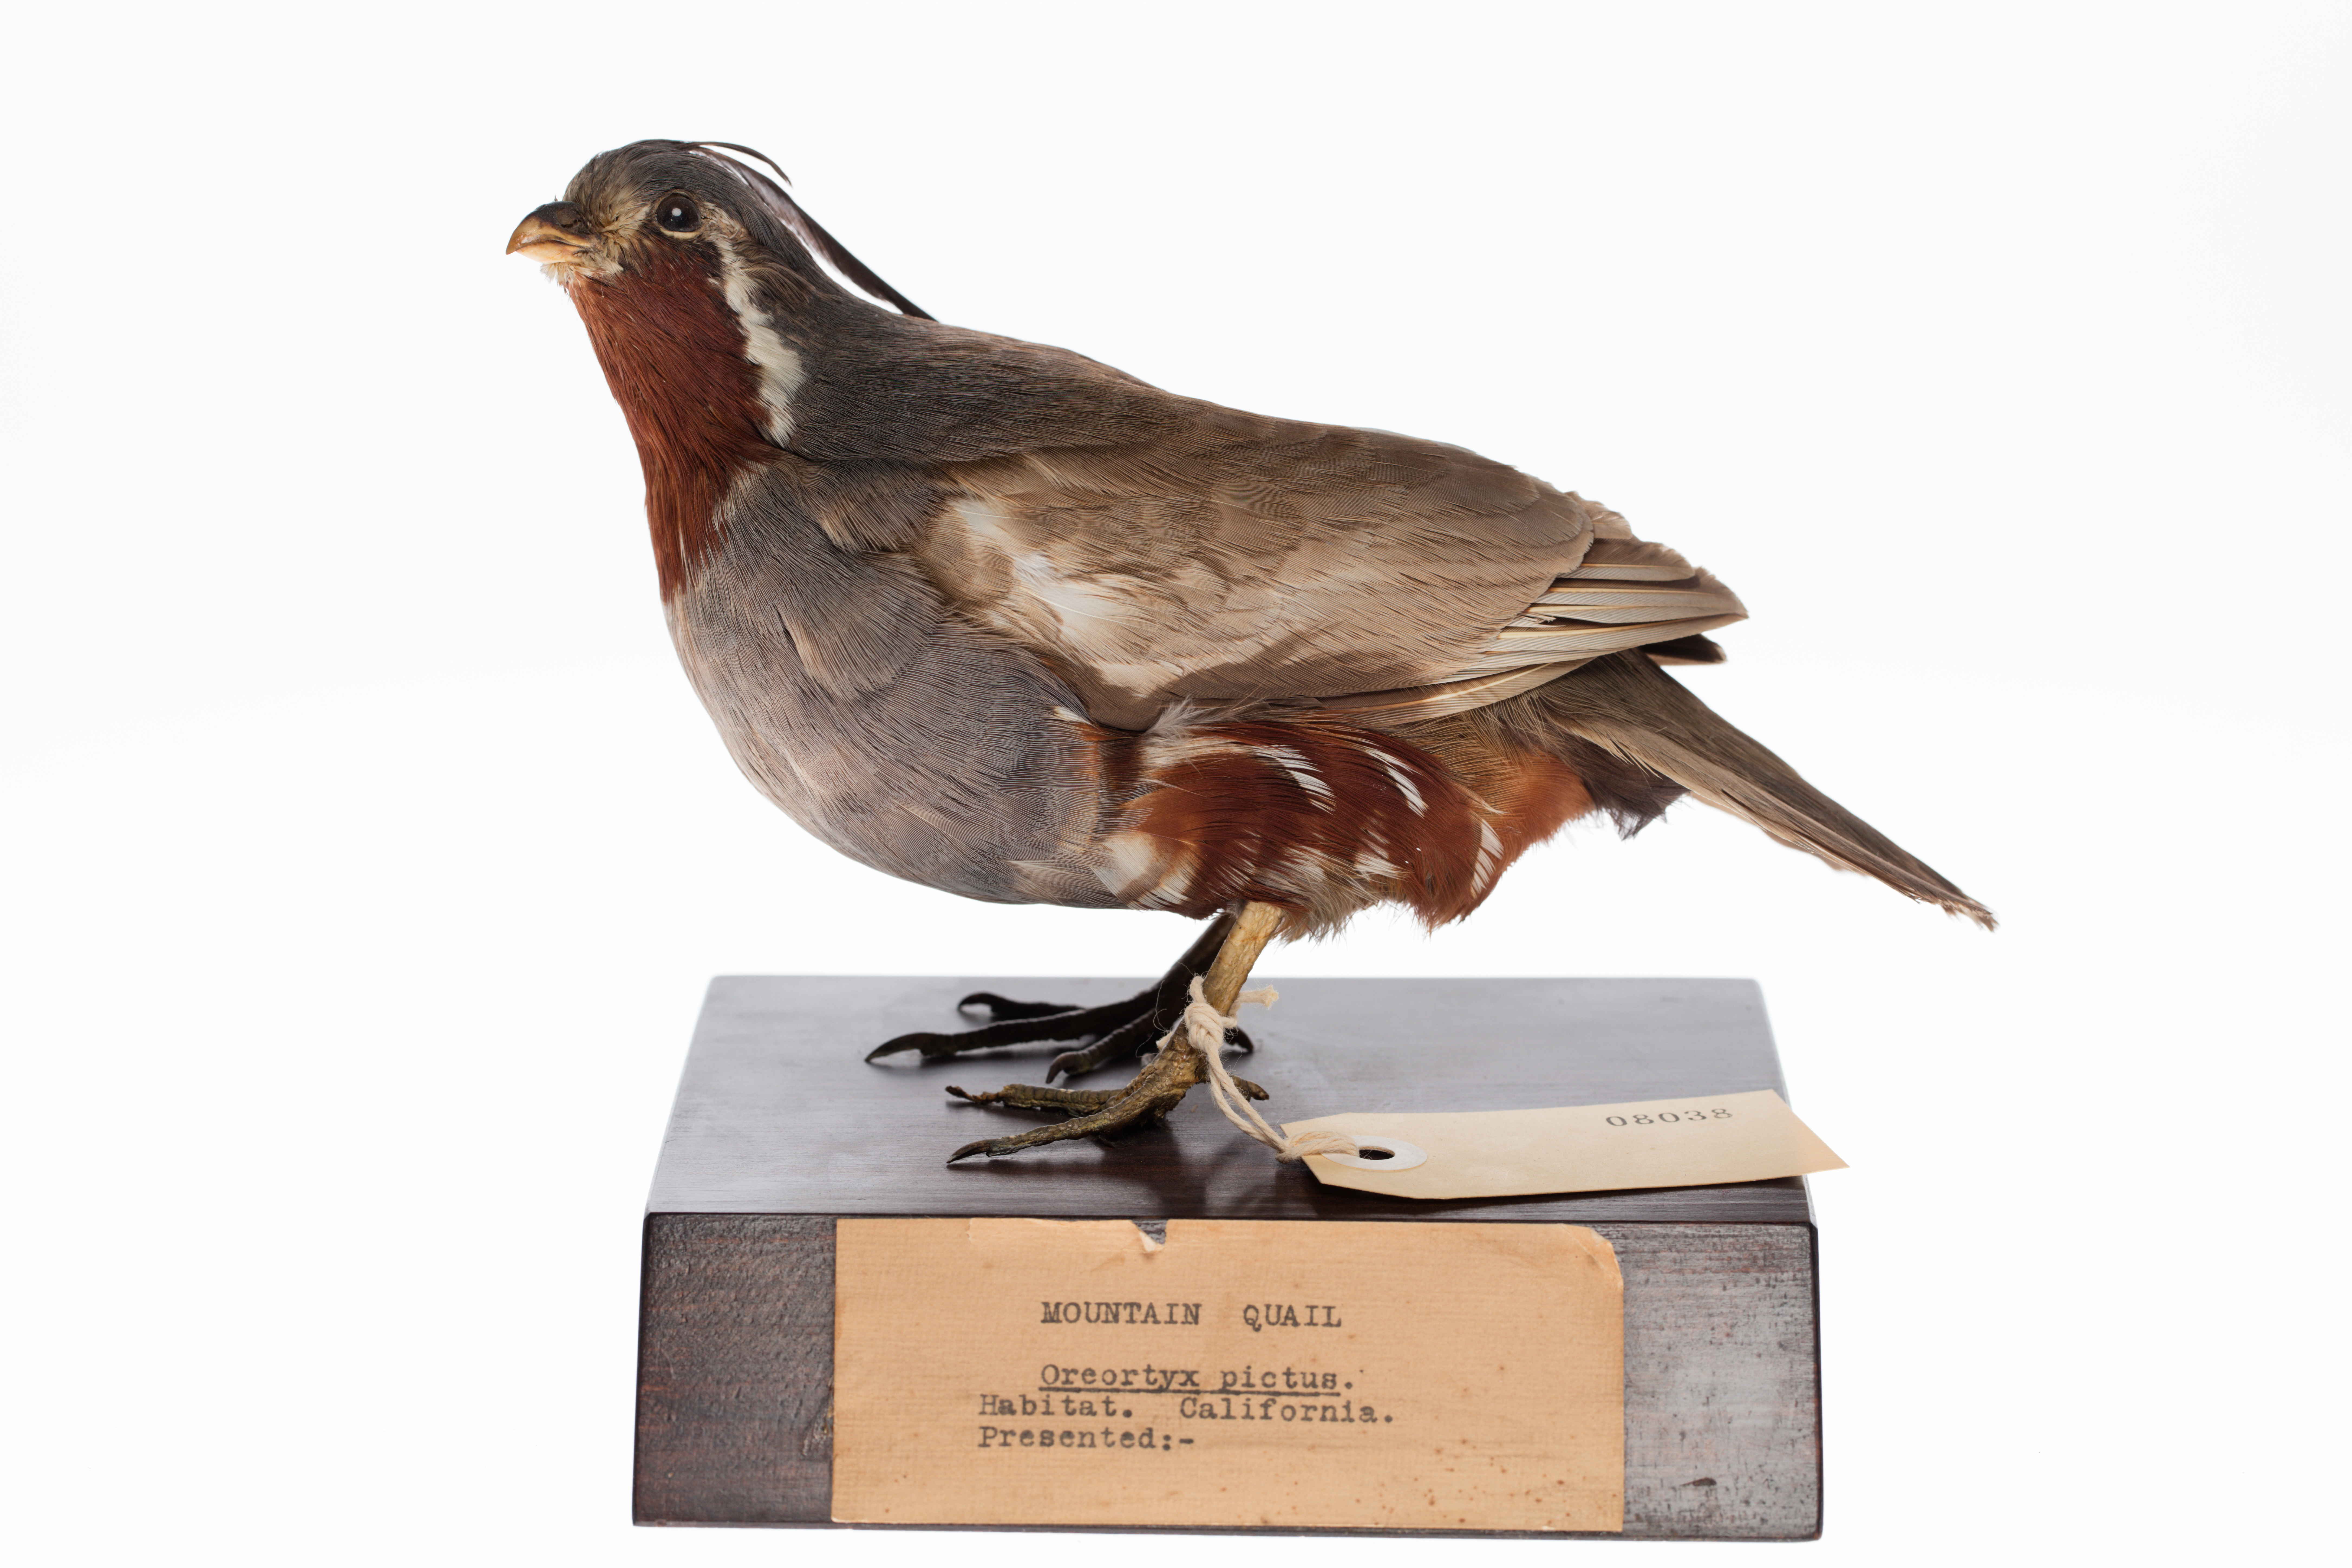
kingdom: Animalia
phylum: Chordata
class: Aves
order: Galliformes
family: Odontophoridae
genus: Oreortyx
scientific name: Oreortyx pictus
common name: Mountain quail
